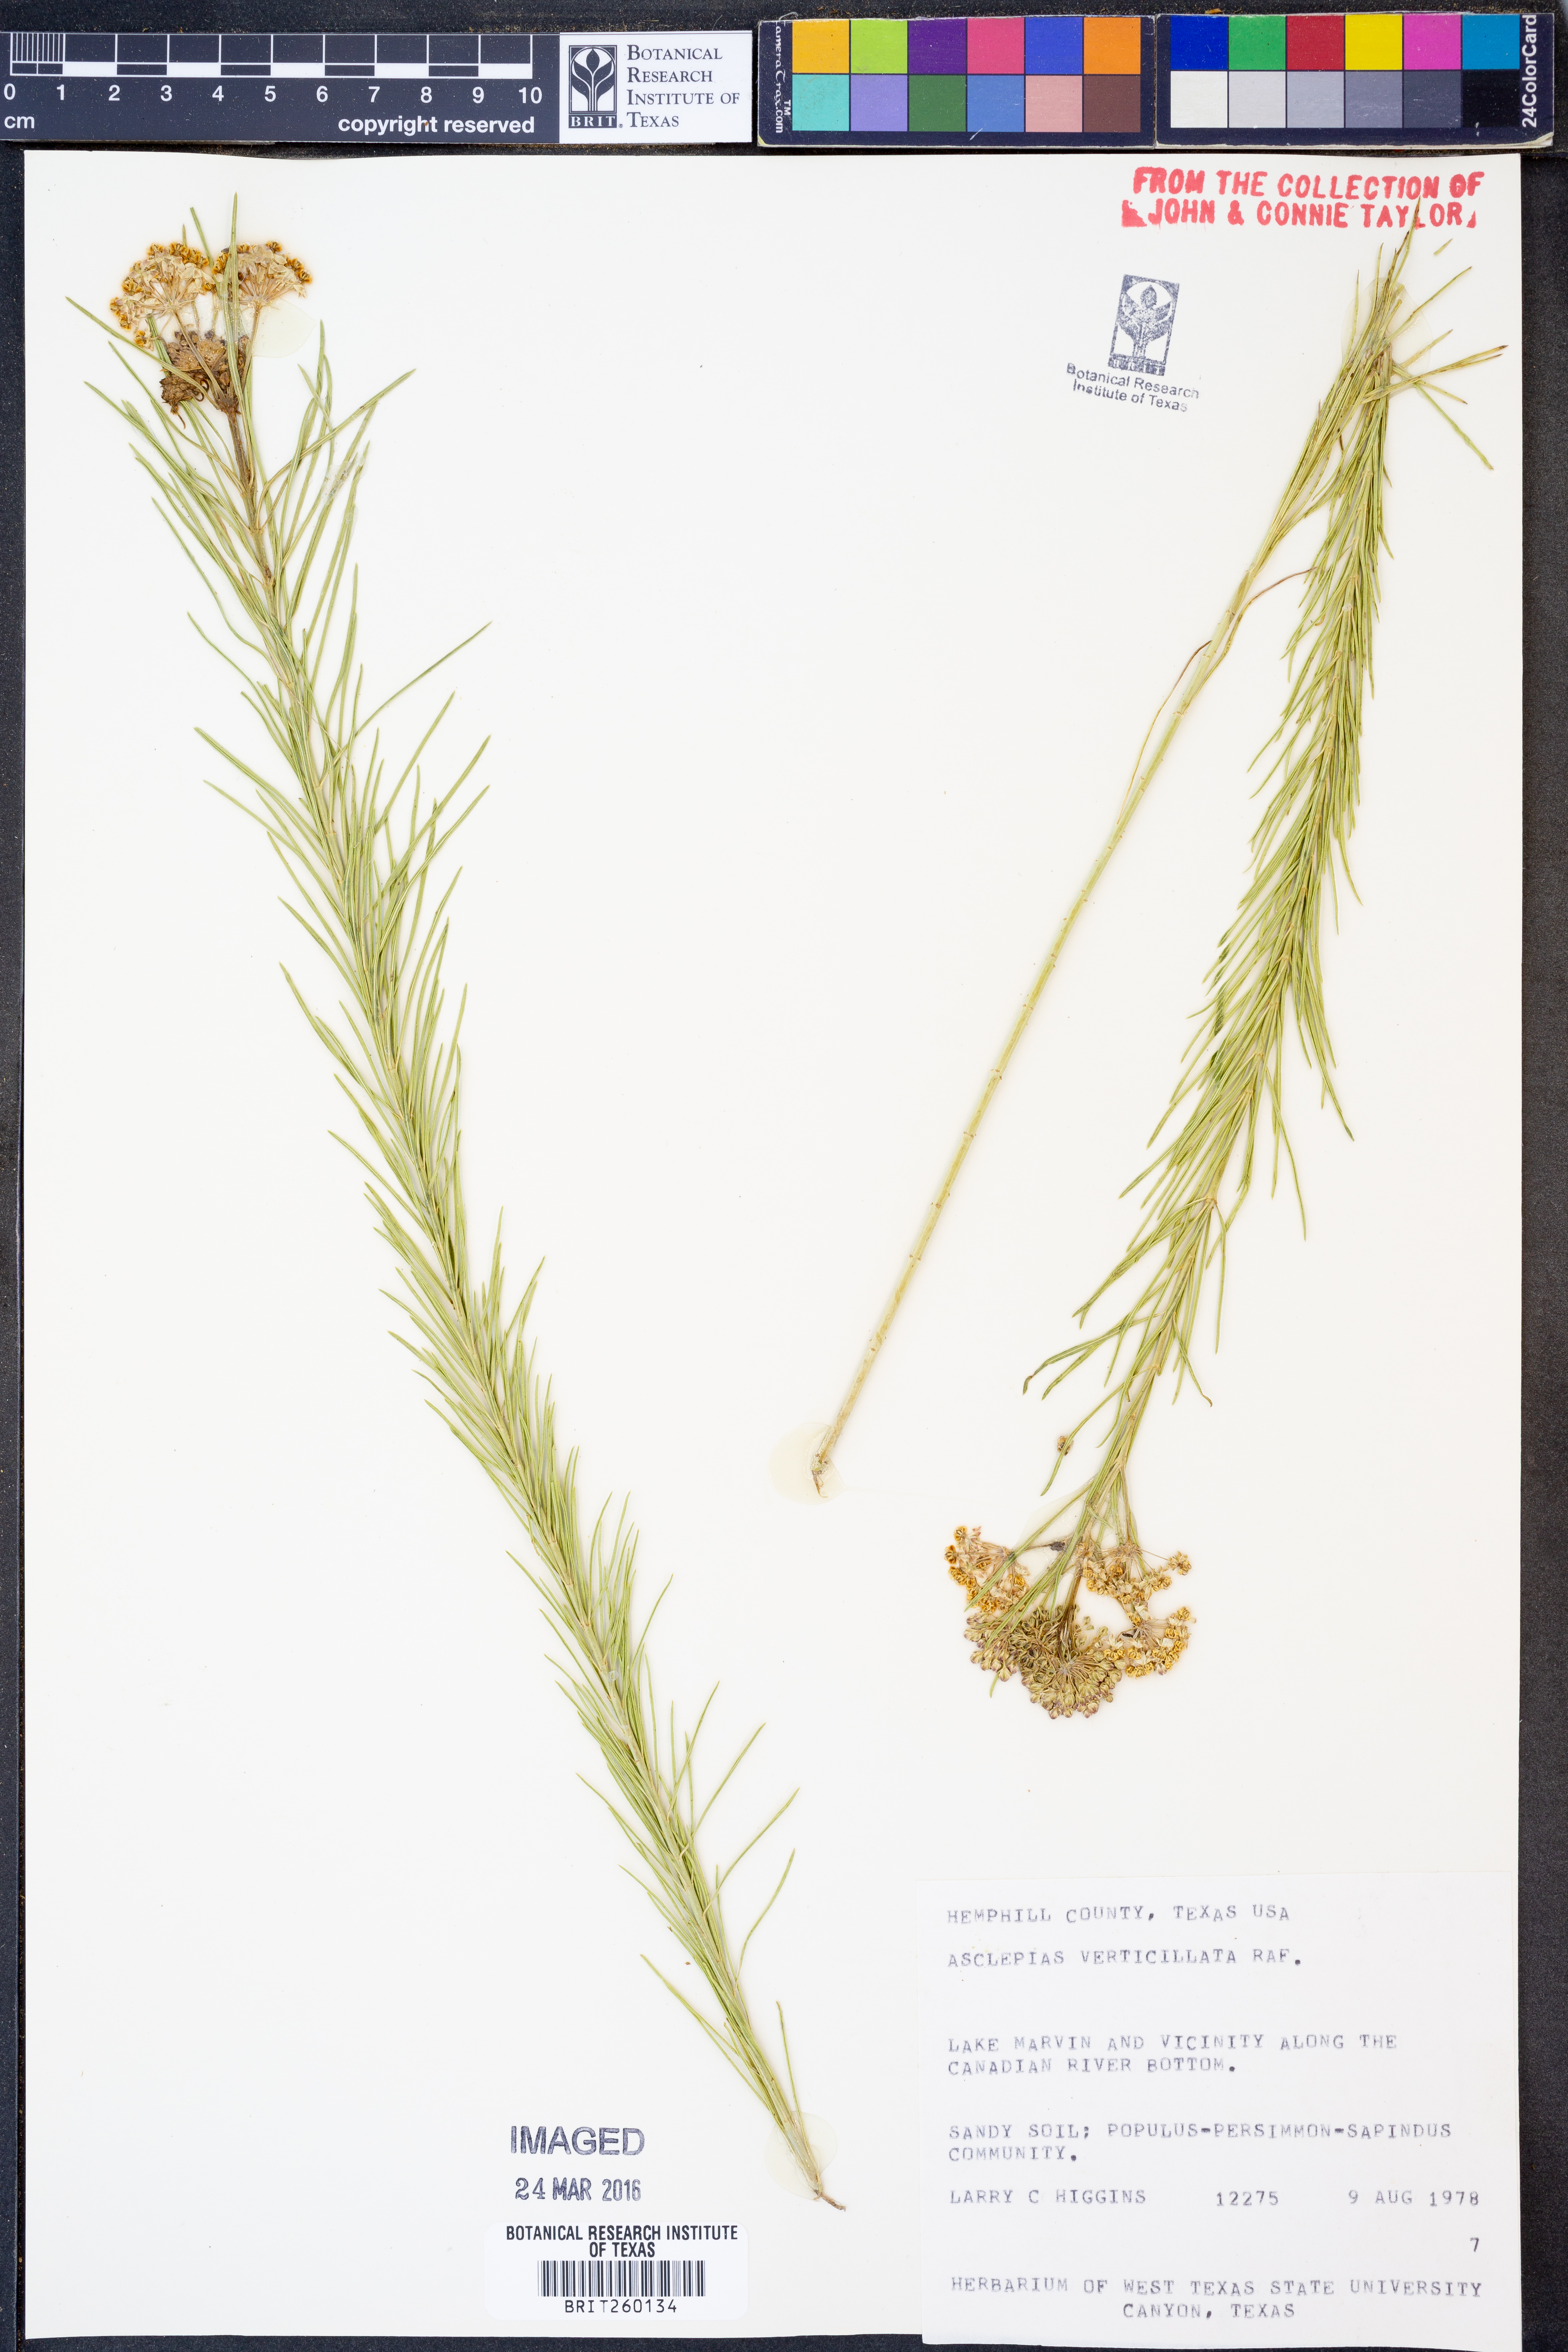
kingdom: Plantae
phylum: Tracheophyta
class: Magnoliopsida
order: Gentianales
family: Apocynaceae
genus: Asclepias
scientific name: Asclepias verticillata
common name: Eastern whorled milkweed
